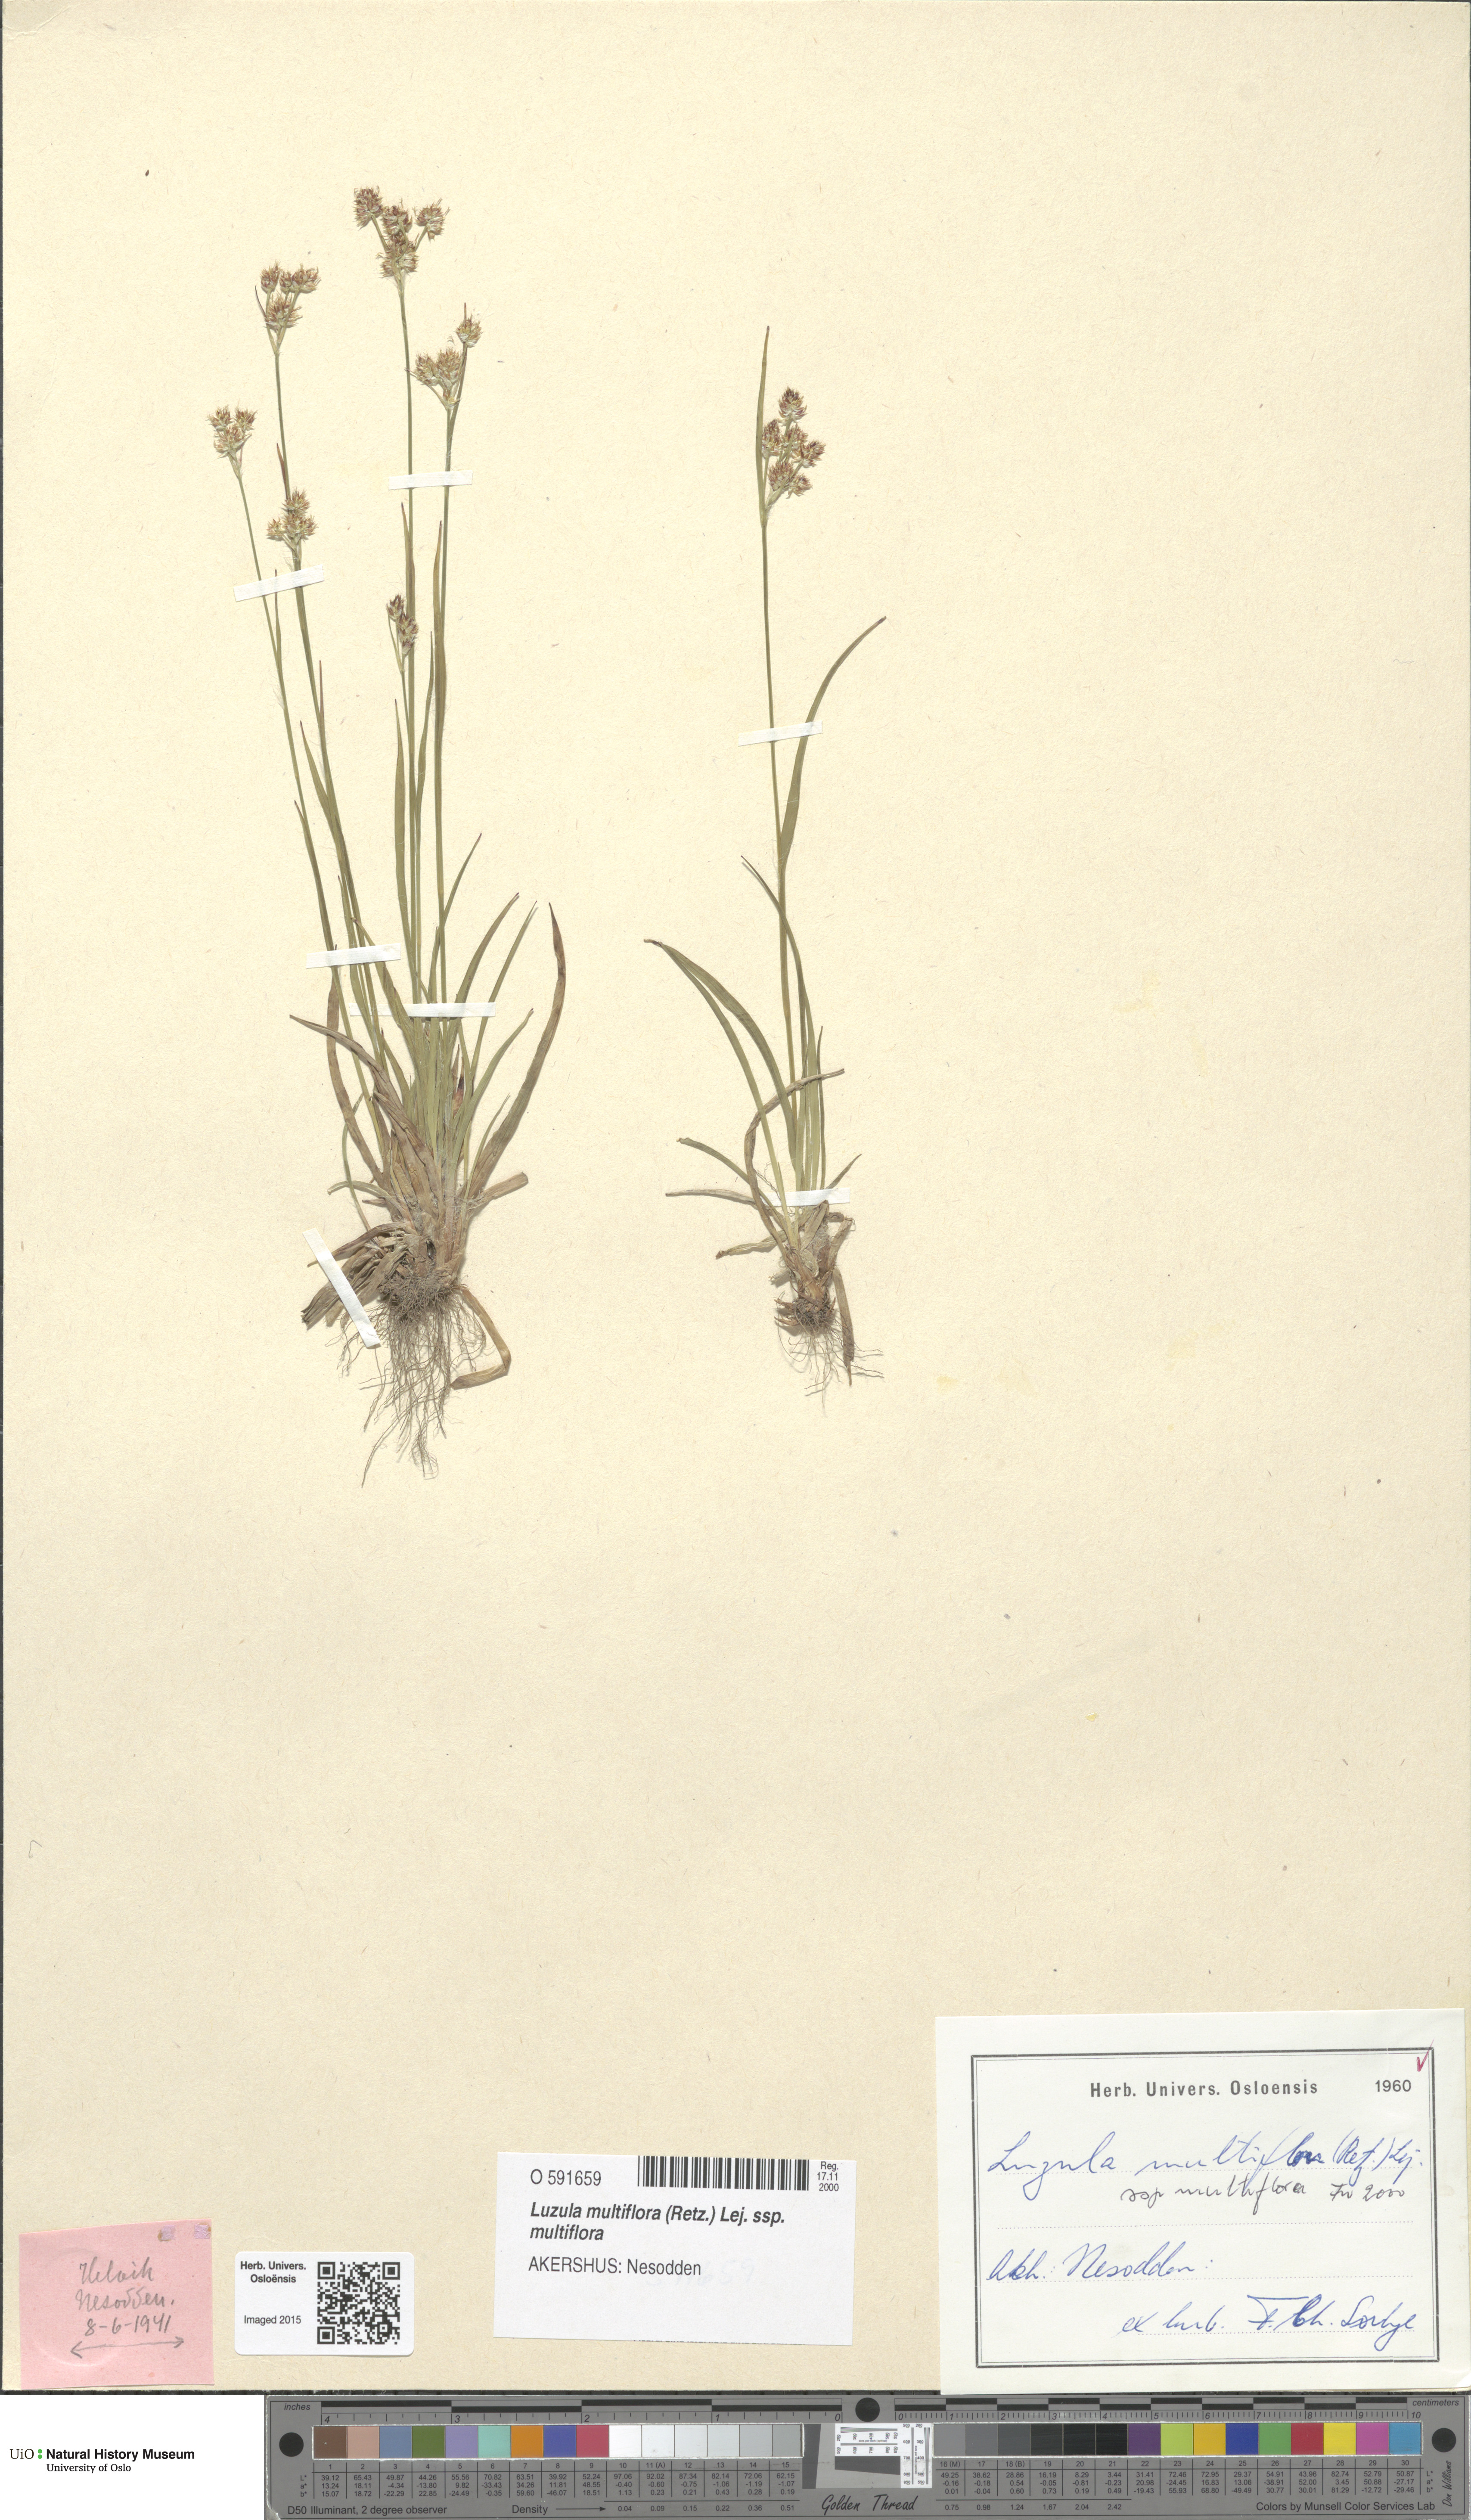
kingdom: Plantae
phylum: Tracheophyta
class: Liliopsida
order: Poales
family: Juncaceae
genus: Luzula
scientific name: Luzula multiflora
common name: Heath wood-rush
